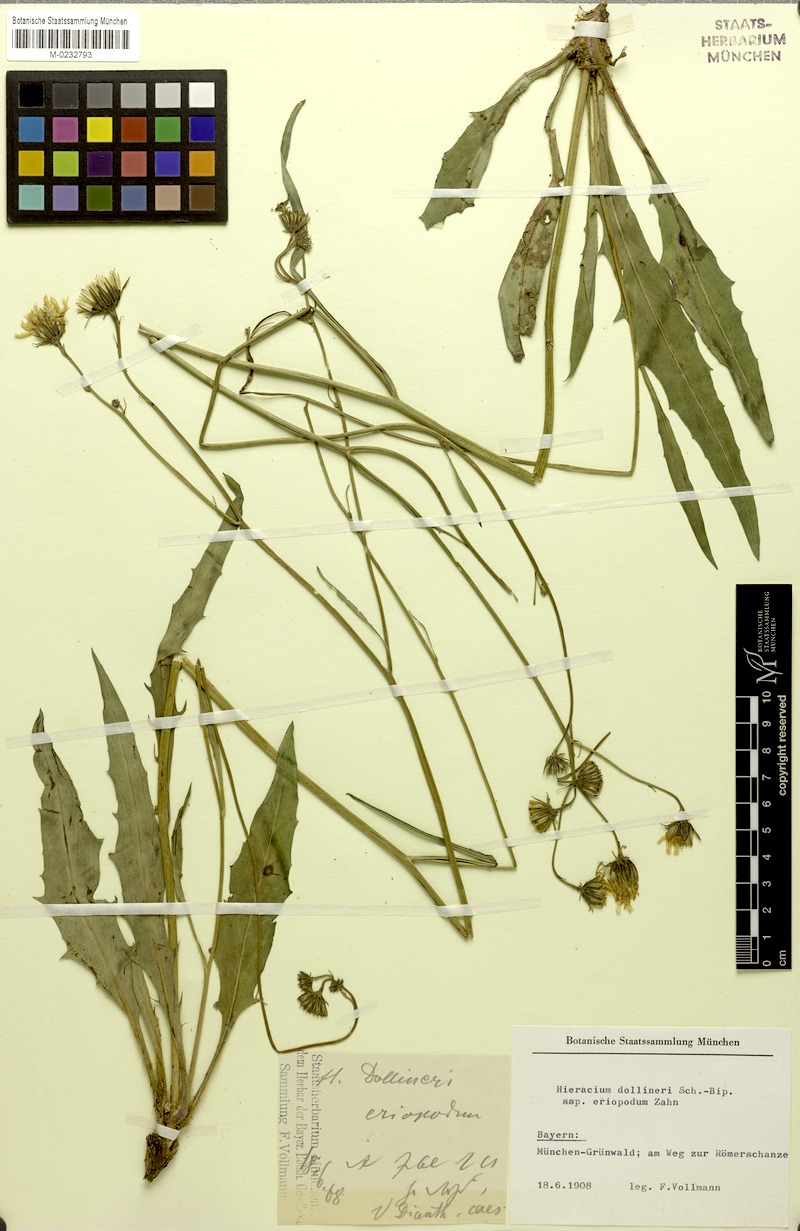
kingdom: Plantae
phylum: Tracheophyta
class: Magnoliopsida
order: Asterales
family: Asteraceae
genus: Hieracium
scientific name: Hieracium dollineri
